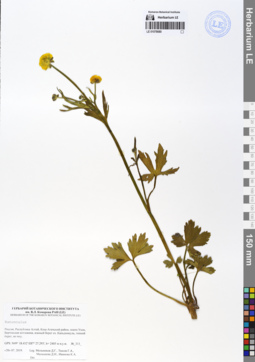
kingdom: Plantae
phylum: Tracheophyta
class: Magnoliopsida
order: Ranunculales
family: Ranunculaceae
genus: Ranunculus
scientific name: Ranunculus schischkinii
